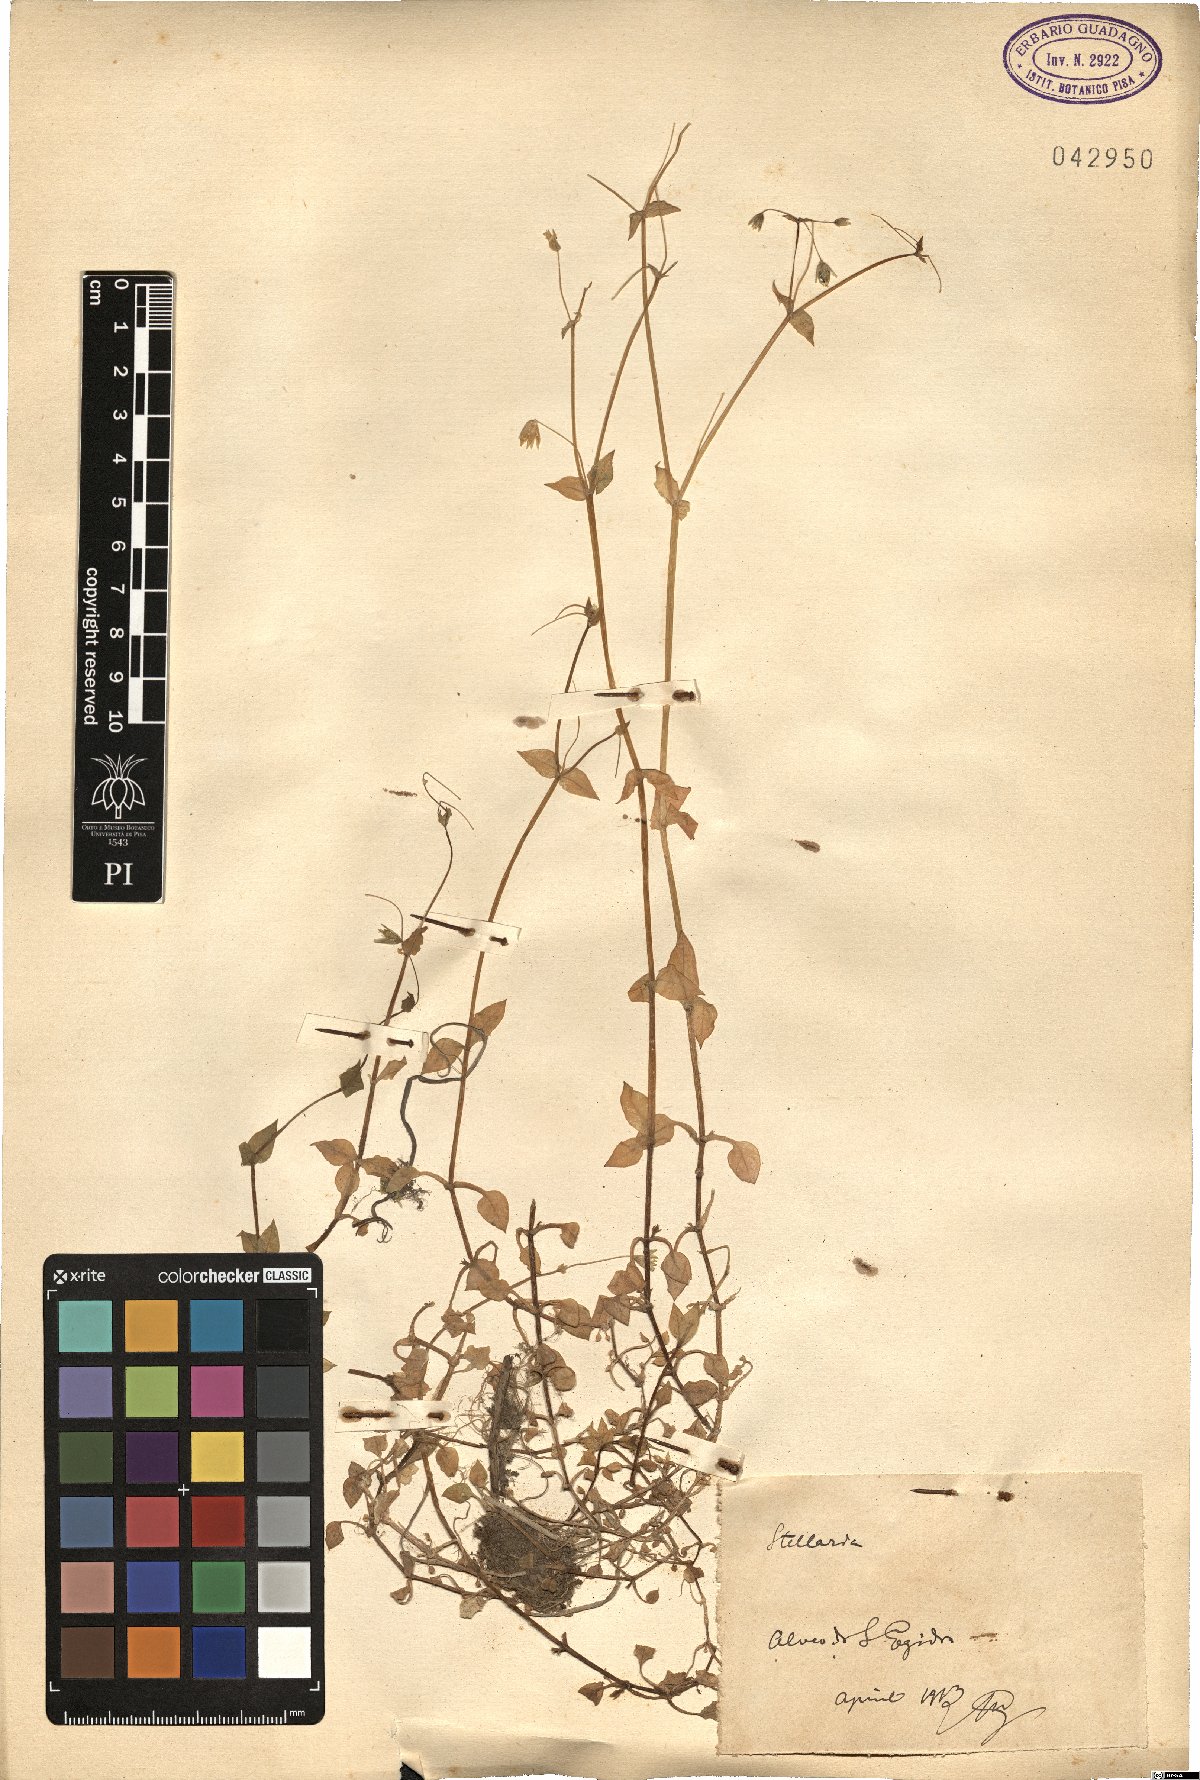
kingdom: Plantae
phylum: Tracheophyta
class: Magnoliopsida
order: Caryophyllales
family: Caryophyllaceae
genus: Stellaria
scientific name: Stellaria
